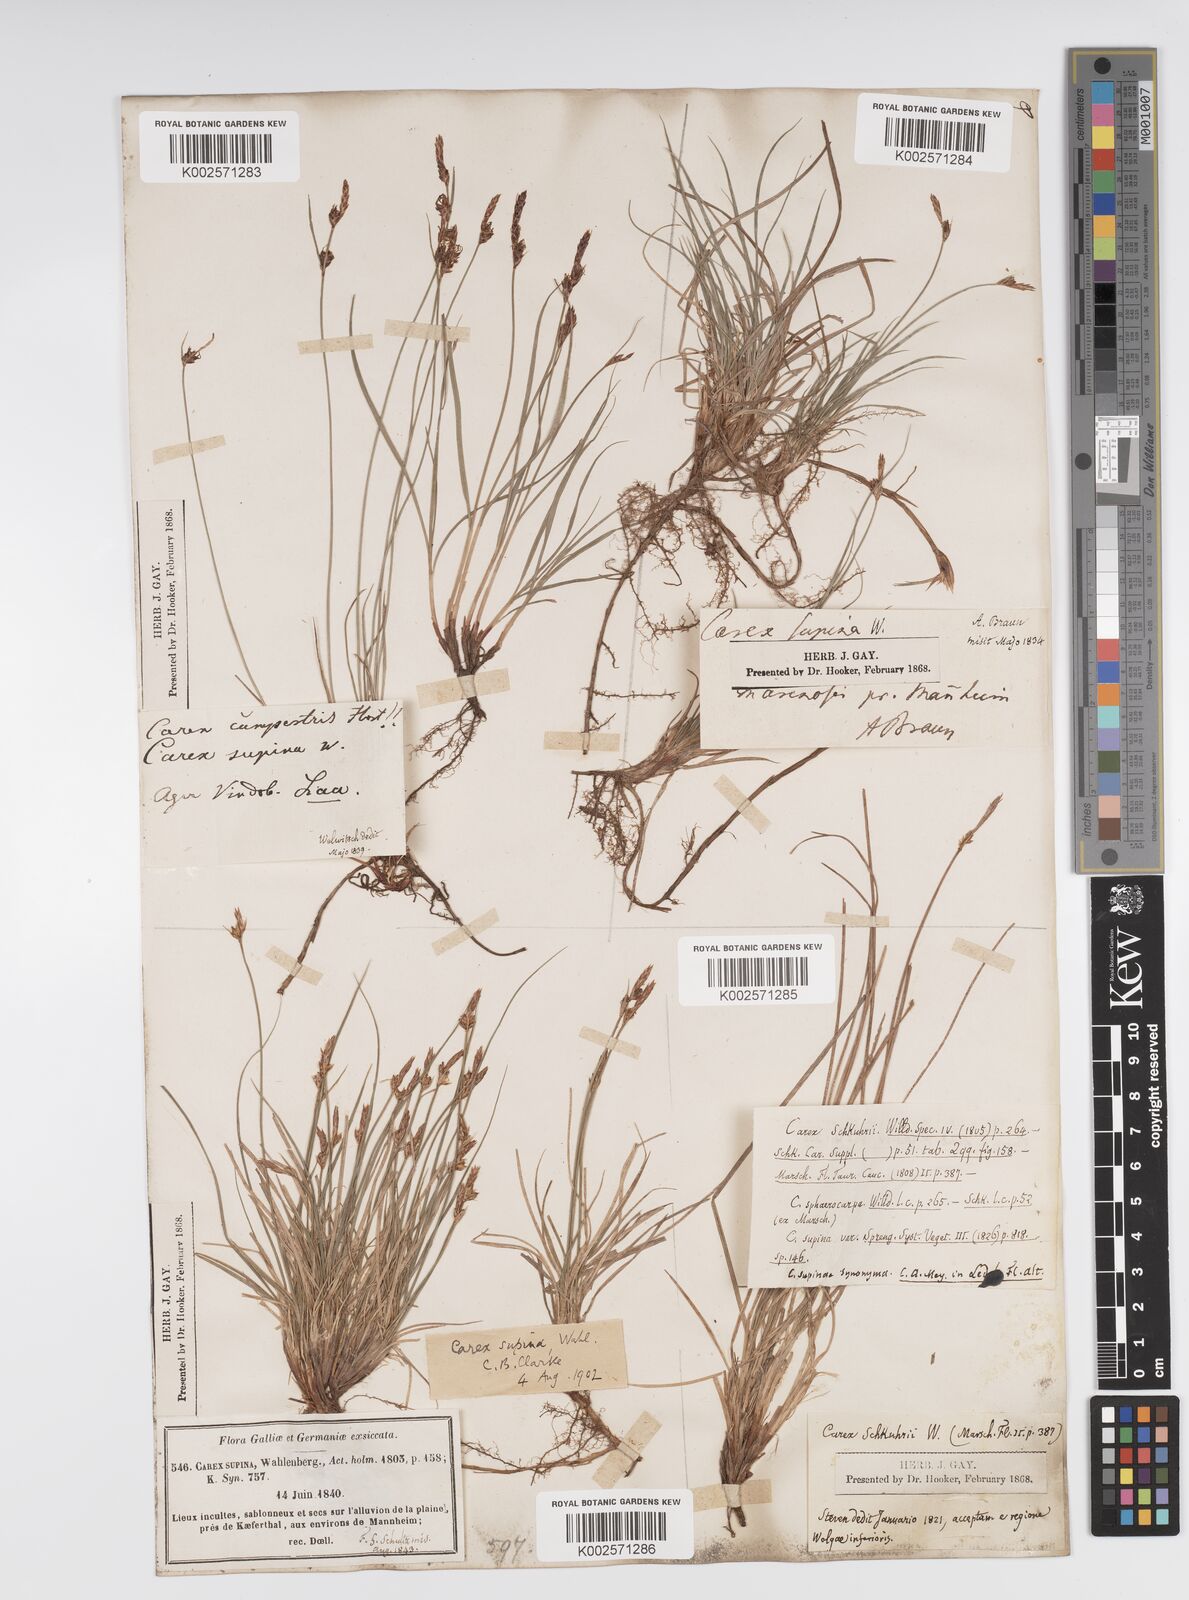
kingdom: Plantae
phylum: Tracheophyta
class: Liliopsida
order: Poales
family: Cyperaceae
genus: Carex
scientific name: Carex supina
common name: Lying-back sedge
